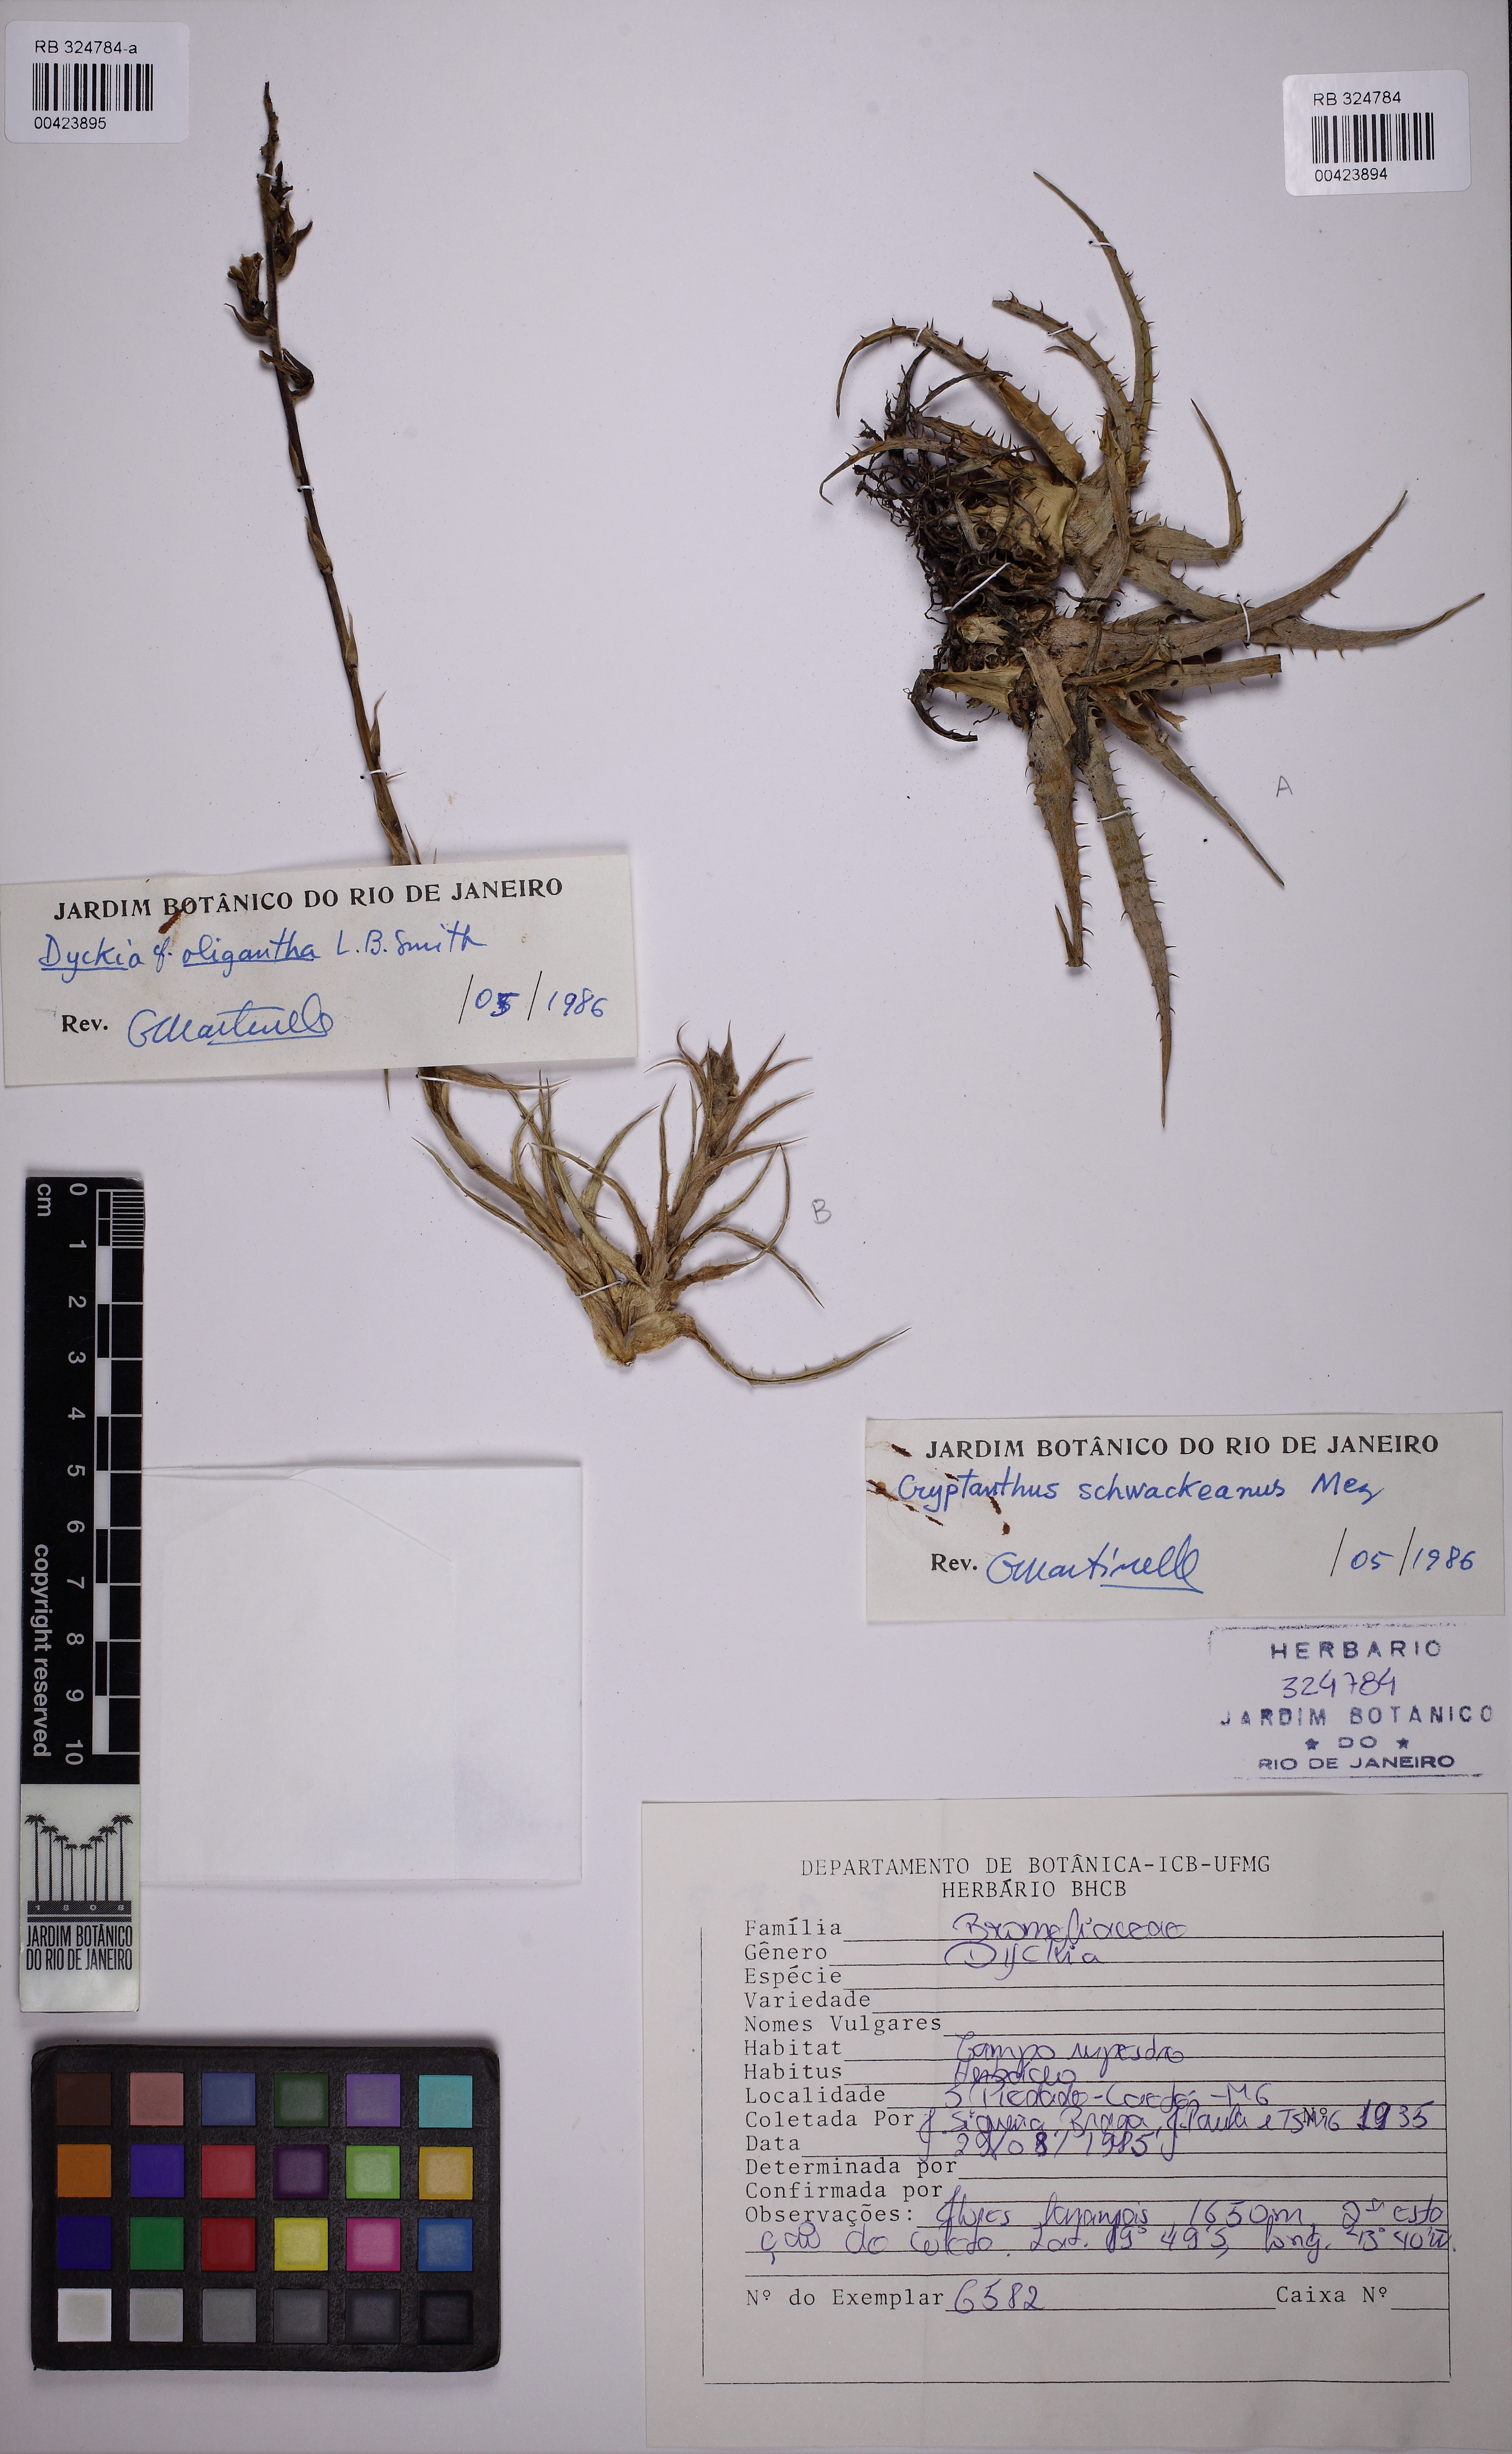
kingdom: Plantae
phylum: Tracheophyta
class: Liliopsida
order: Poales
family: Bromeliaceae
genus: Hoplocryptanthus
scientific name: Hoplocryptanthus schwackeanus
